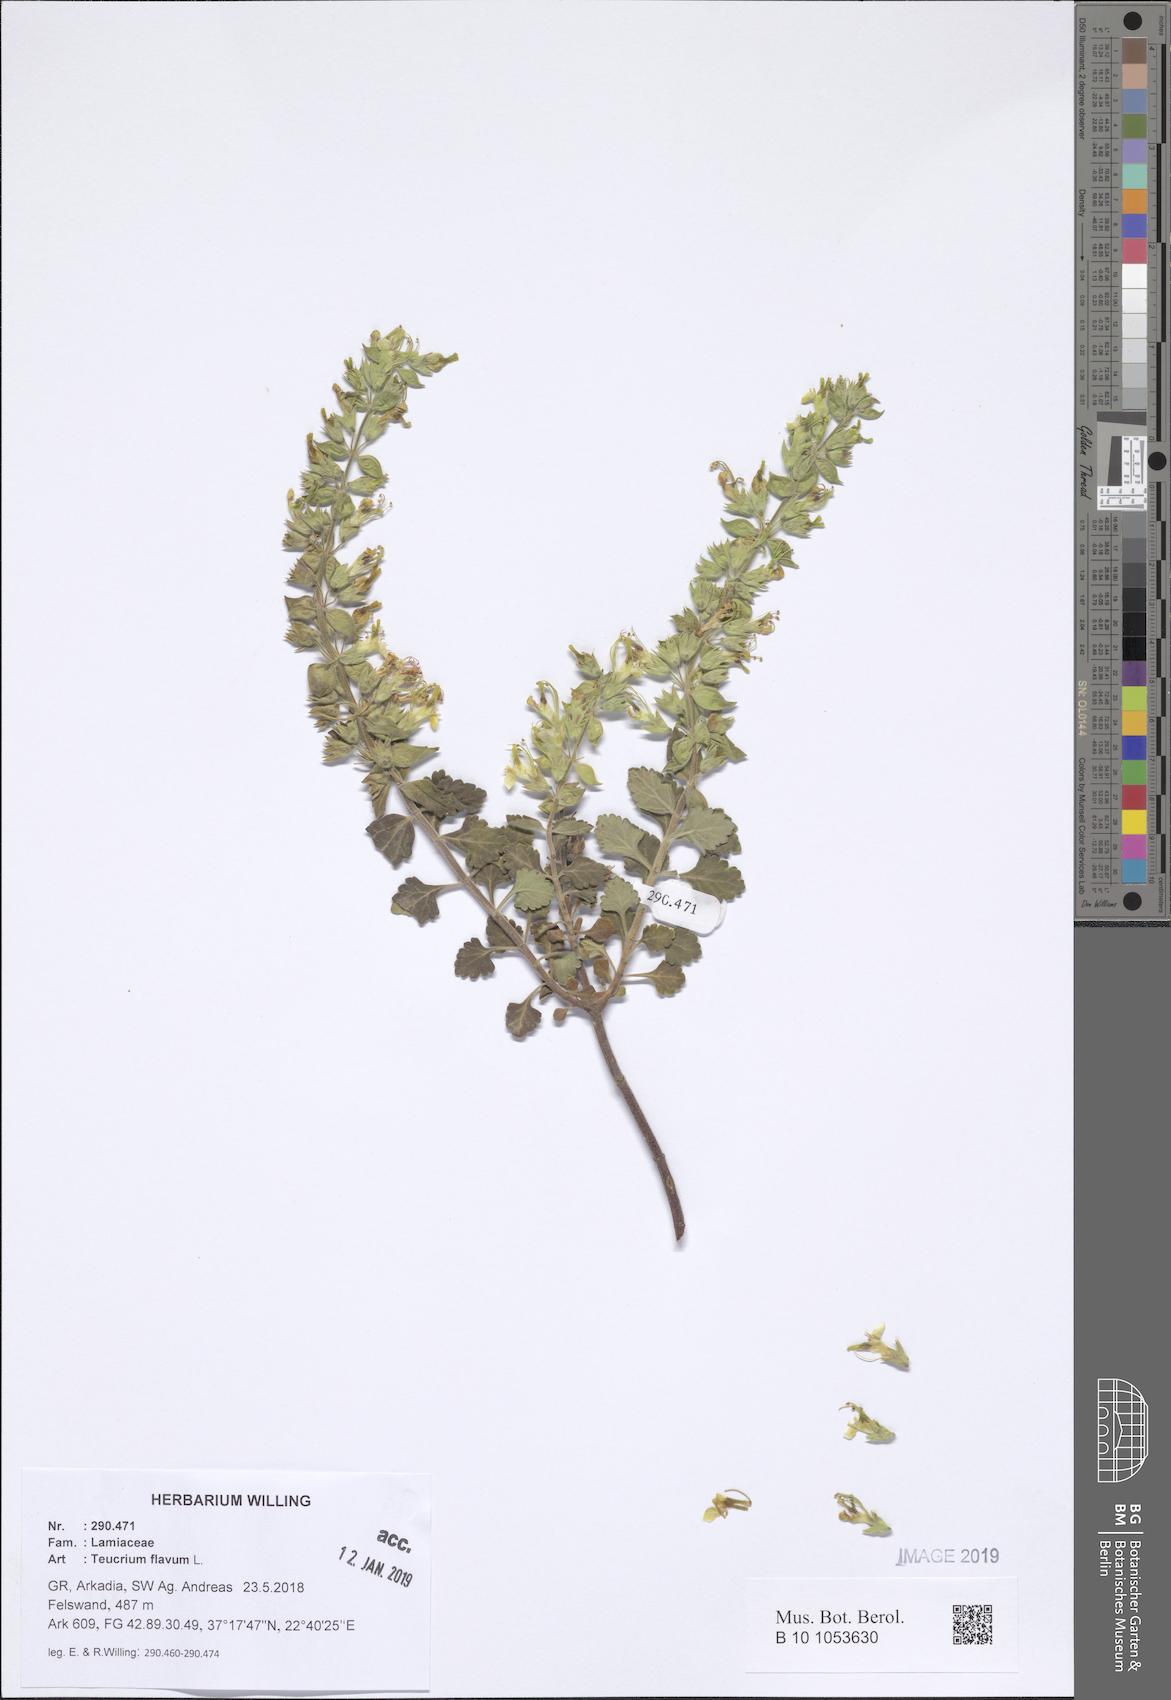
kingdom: Plantae
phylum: Tracheophyta
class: Magnoliopsida
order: Lamiales
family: Lamiaceae
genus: Teucrium
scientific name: Teucrium flavum
